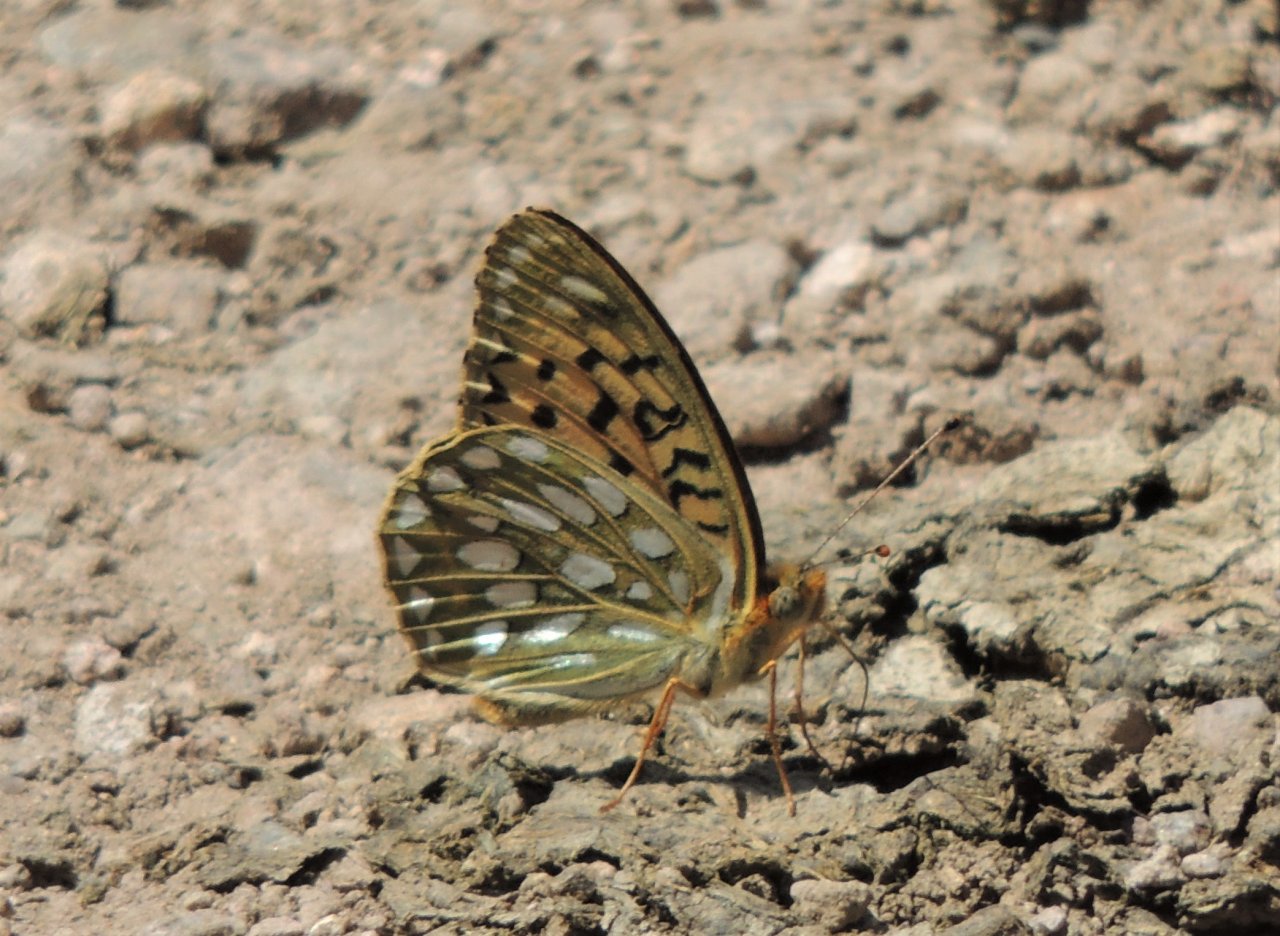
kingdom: Animalia
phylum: Arthropoda
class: Insecta
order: Lepidoptera
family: Nymphalidae
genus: Speyeria
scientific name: Speyeria callippe
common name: Callippe Fritillary
